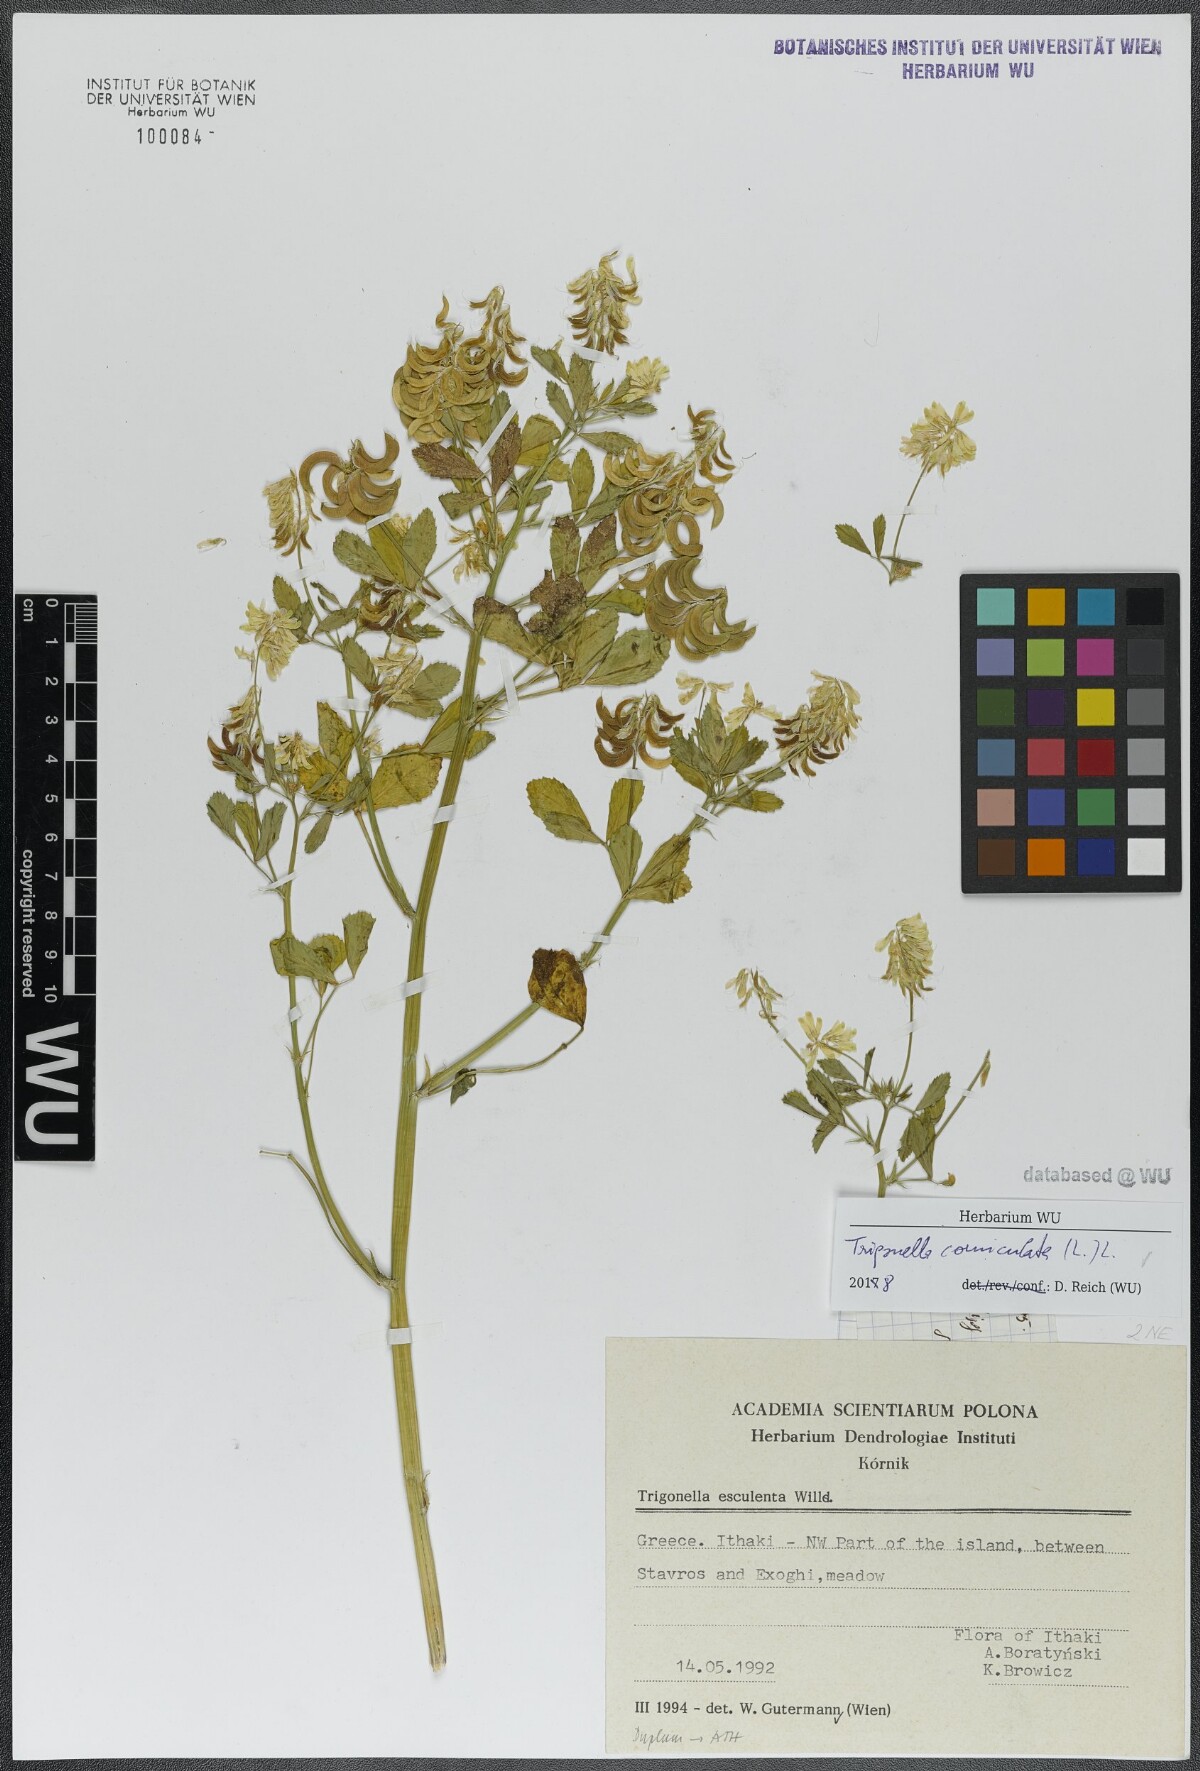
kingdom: Plantae
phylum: Tracheophyta
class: Magnoliopsida
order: Fabales
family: Fabaceae
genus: Trigonella
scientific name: Trigonella balansae
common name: Sickle-fruited fenugreek
